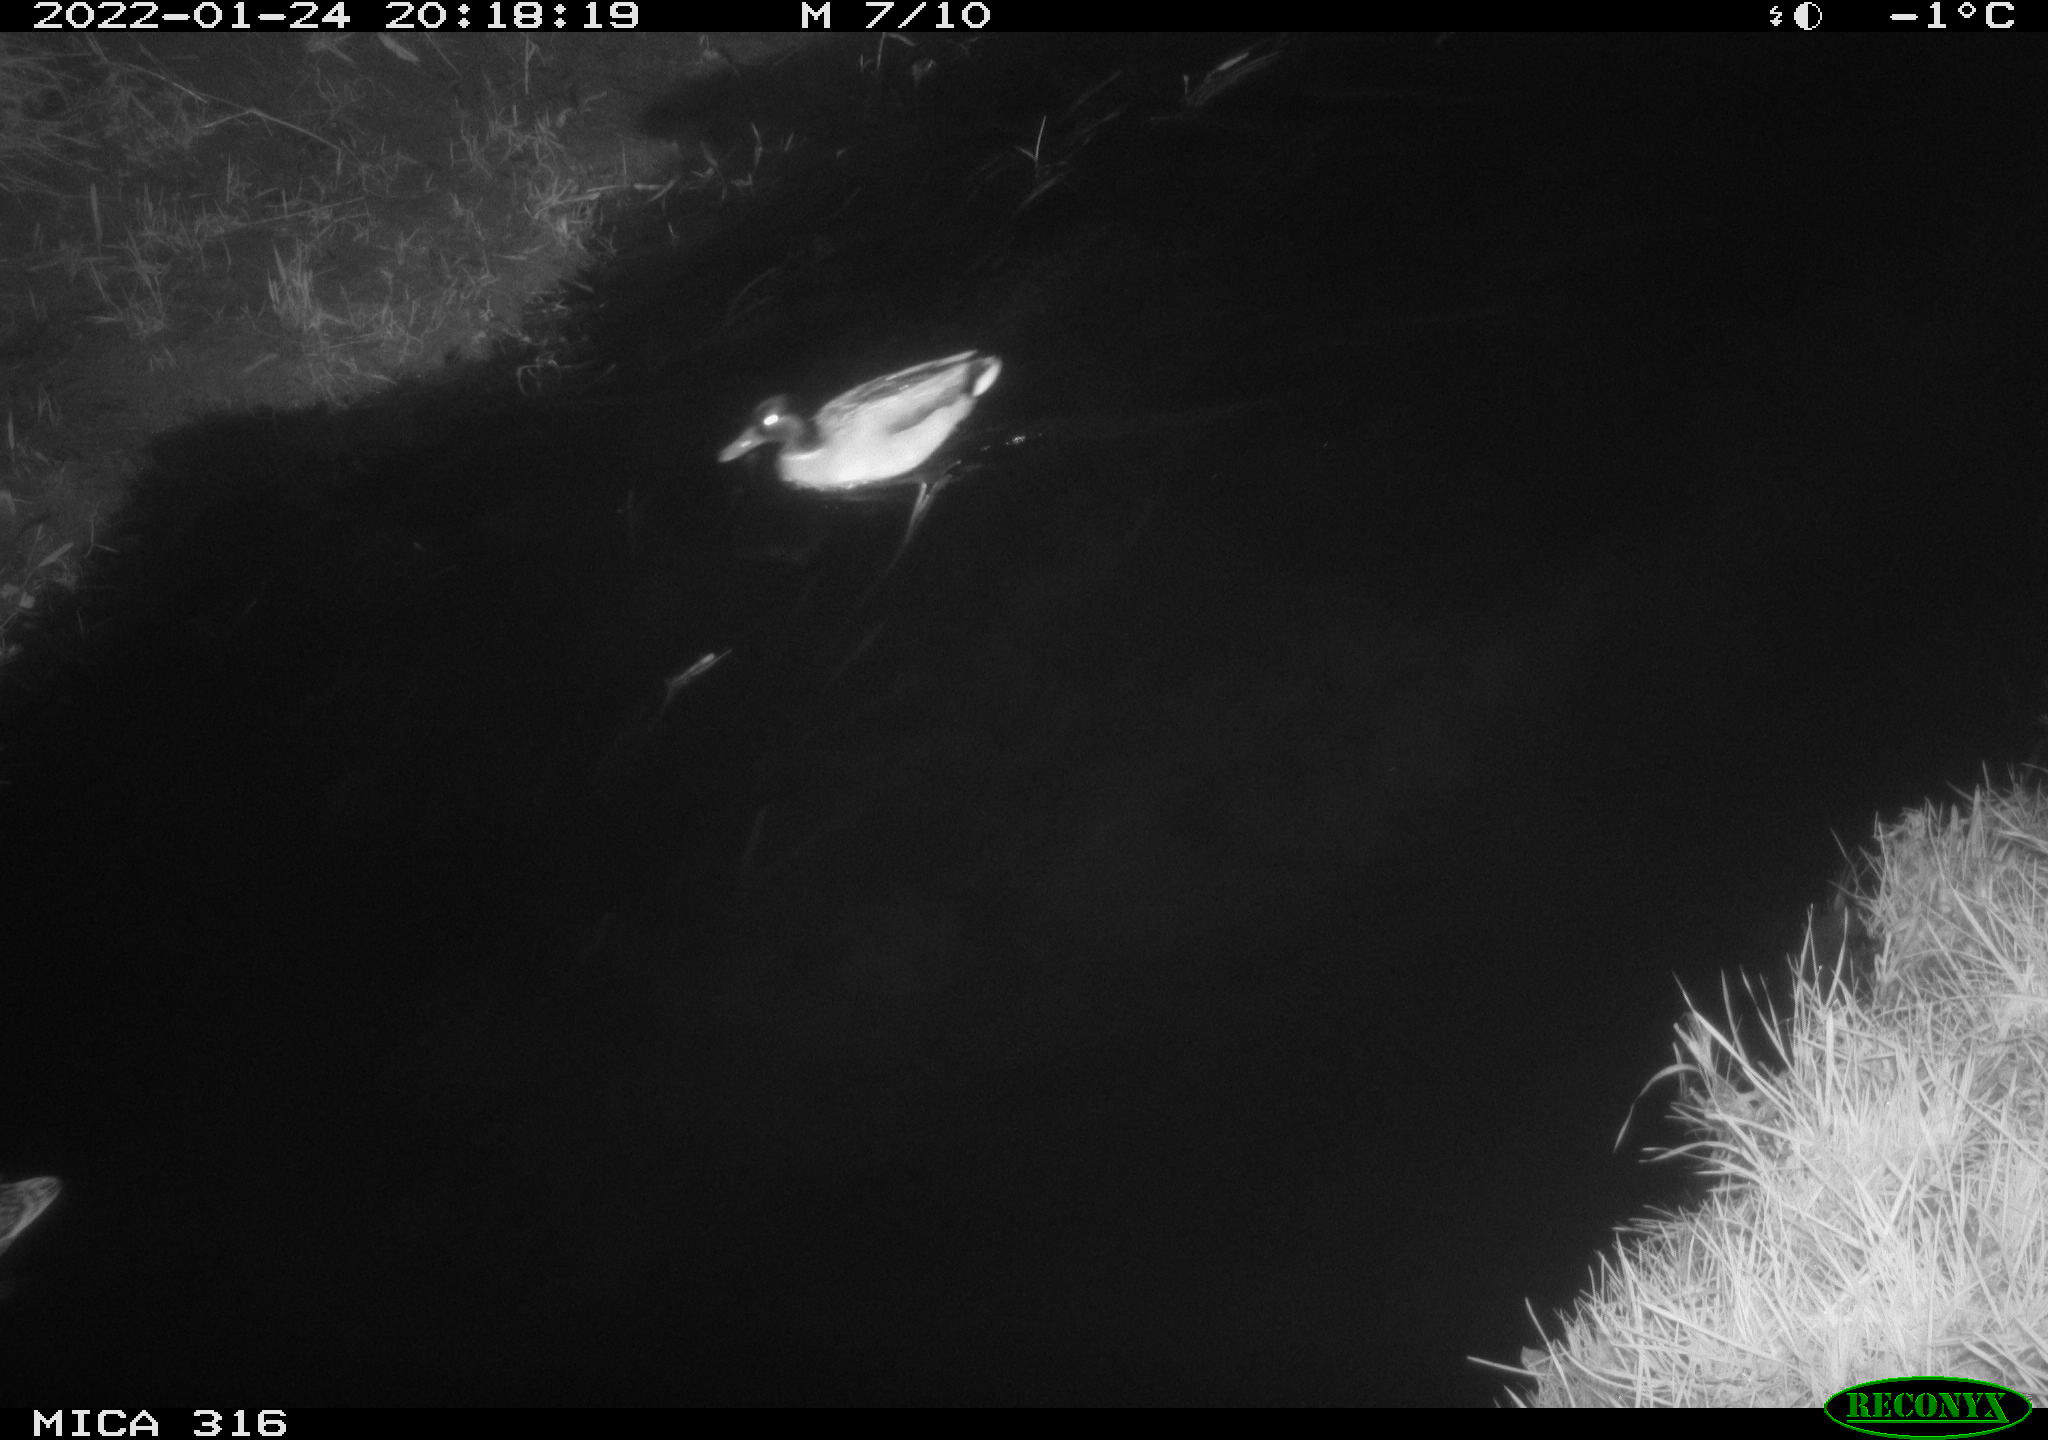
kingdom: Animalia
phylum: Chordata
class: Aves
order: Anseriformes
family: Anatidae
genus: Anas
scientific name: Anas platyrhynchos
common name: Mallard
